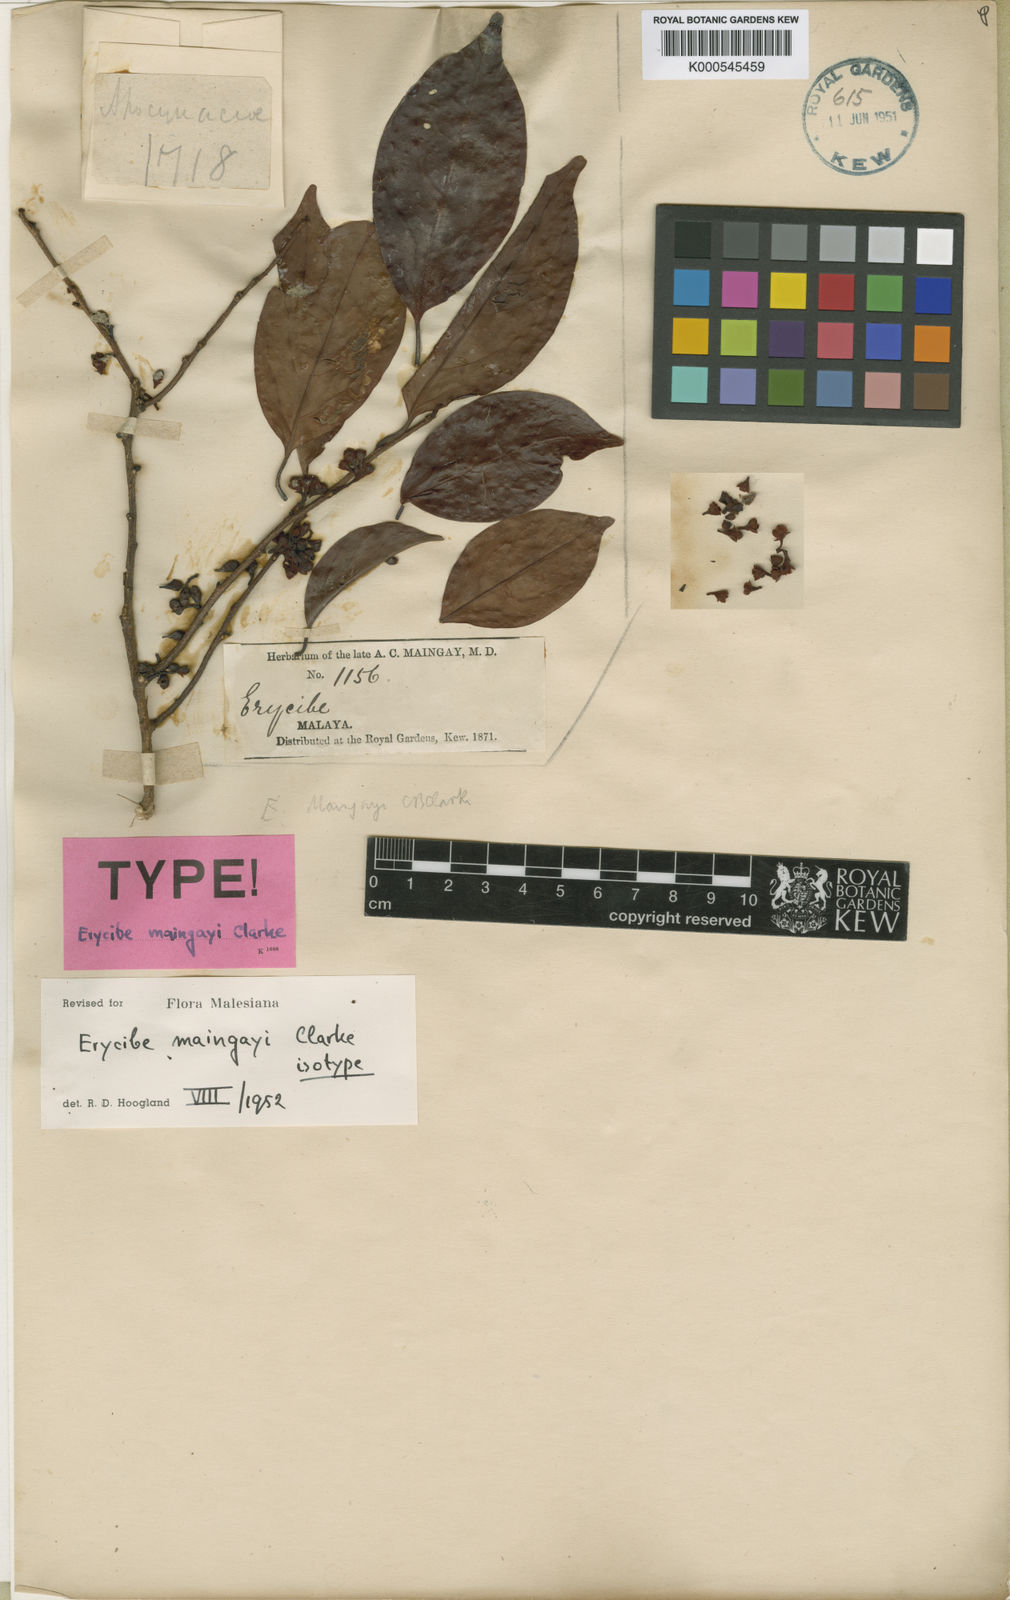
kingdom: Plantae
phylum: Tracheophyta
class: Magnoliopsida
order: Solanales
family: Convolvulaceae
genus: Erycibe
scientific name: Erycibe maingayi
